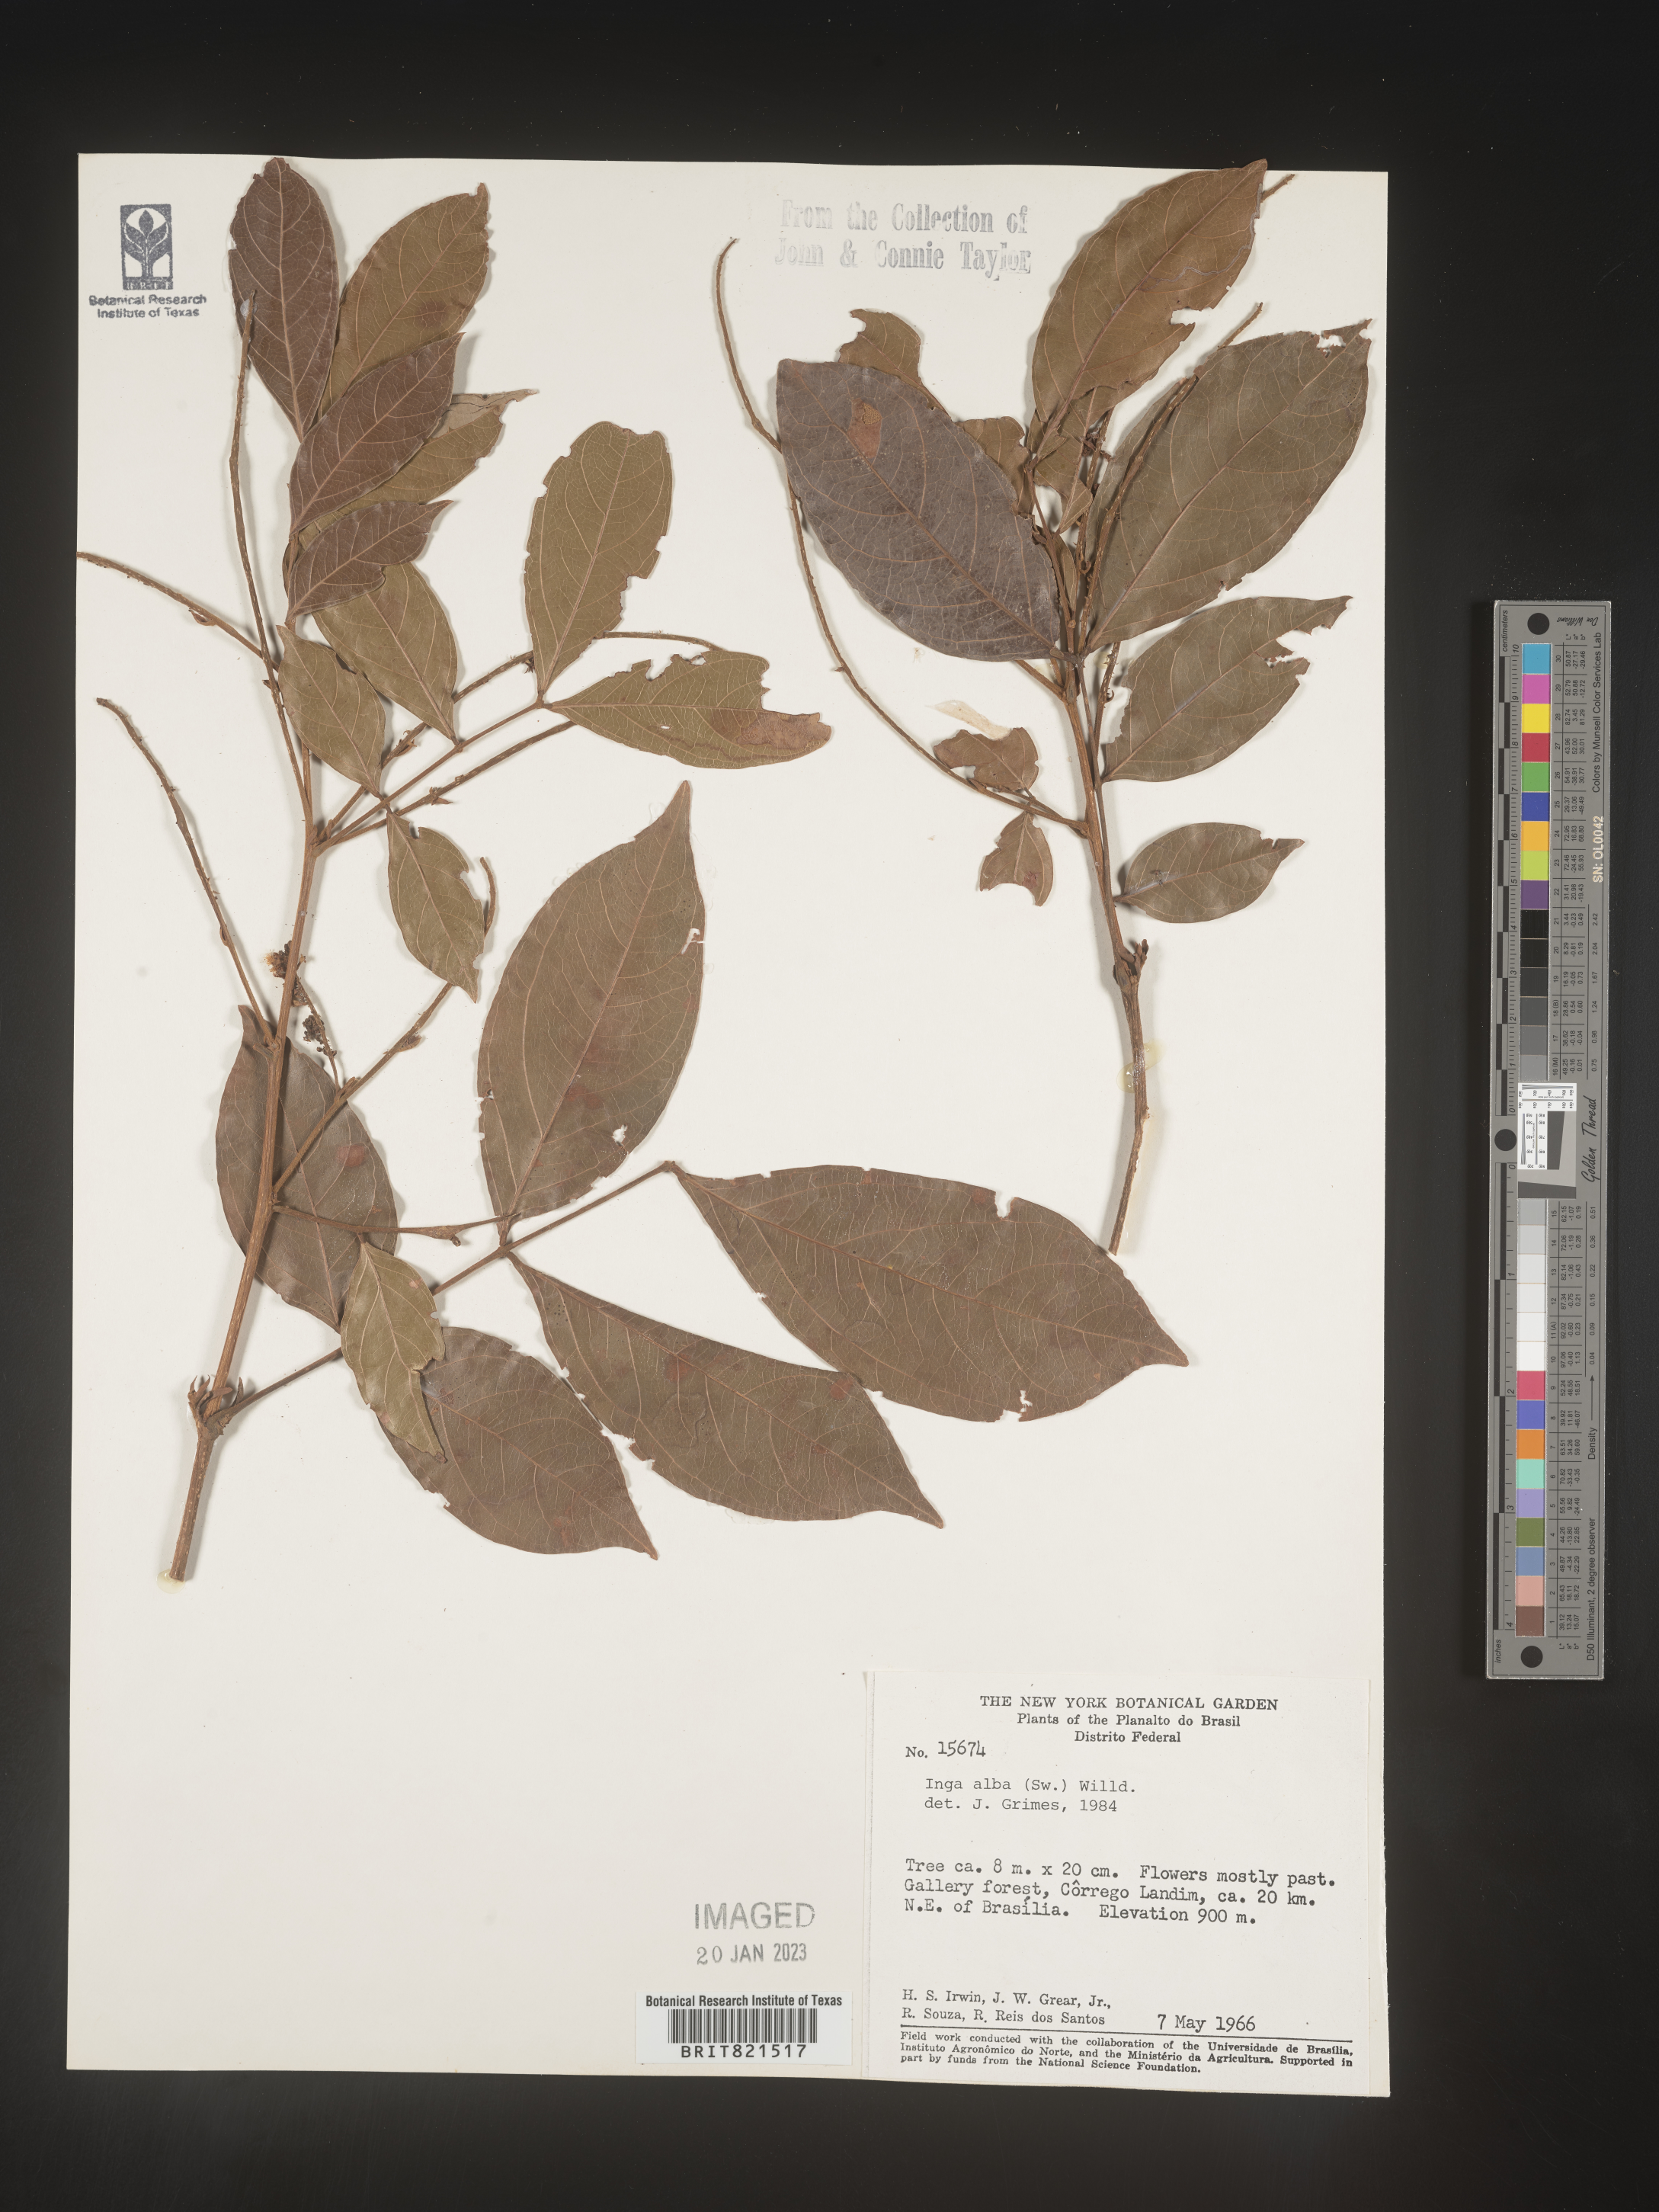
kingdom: Plantae
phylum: Tracheophyta
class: Magnoliopsida
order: Fabales
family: Fabaceae
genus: Inga
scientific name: Inga
